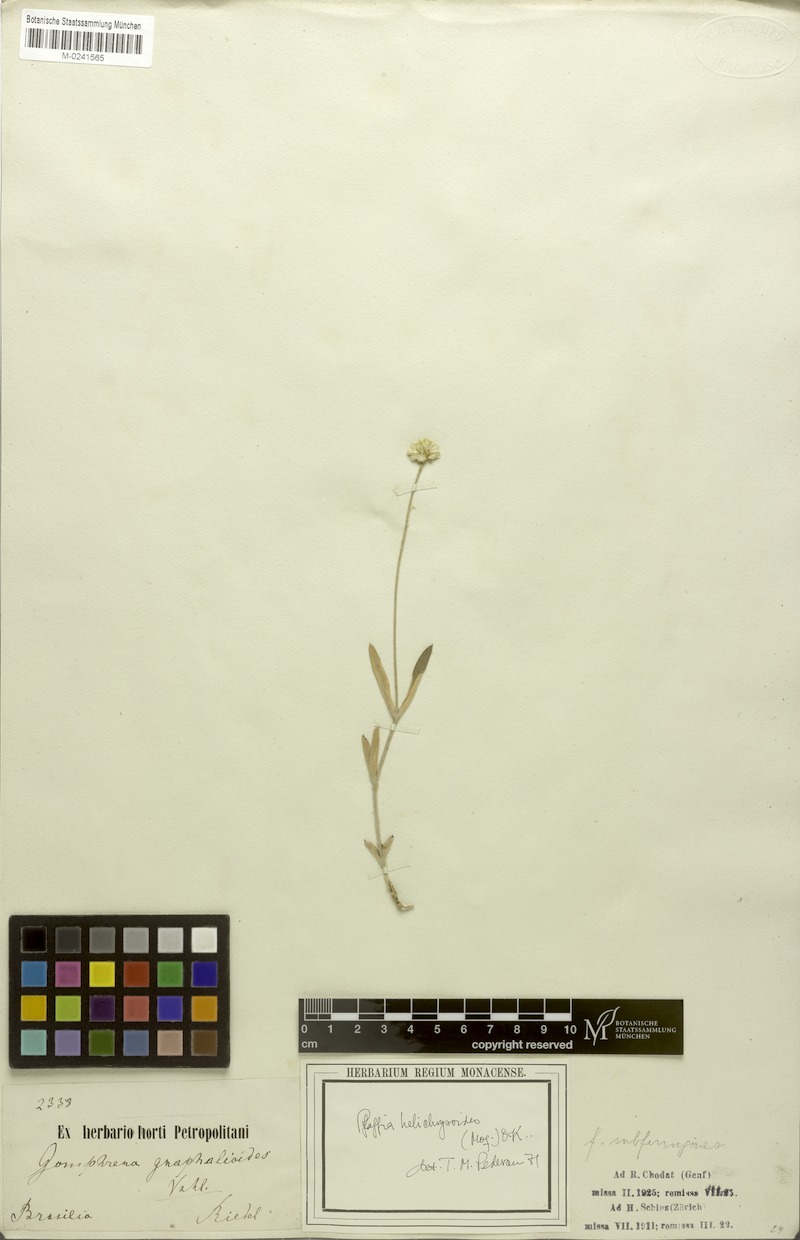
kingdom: Plantae
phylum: Tracheophyta
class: Magnoliopsida
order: Caryophyllales
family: Amaranthaceae
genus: Pfaffia
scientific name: Pfaffia gnaphalioides
